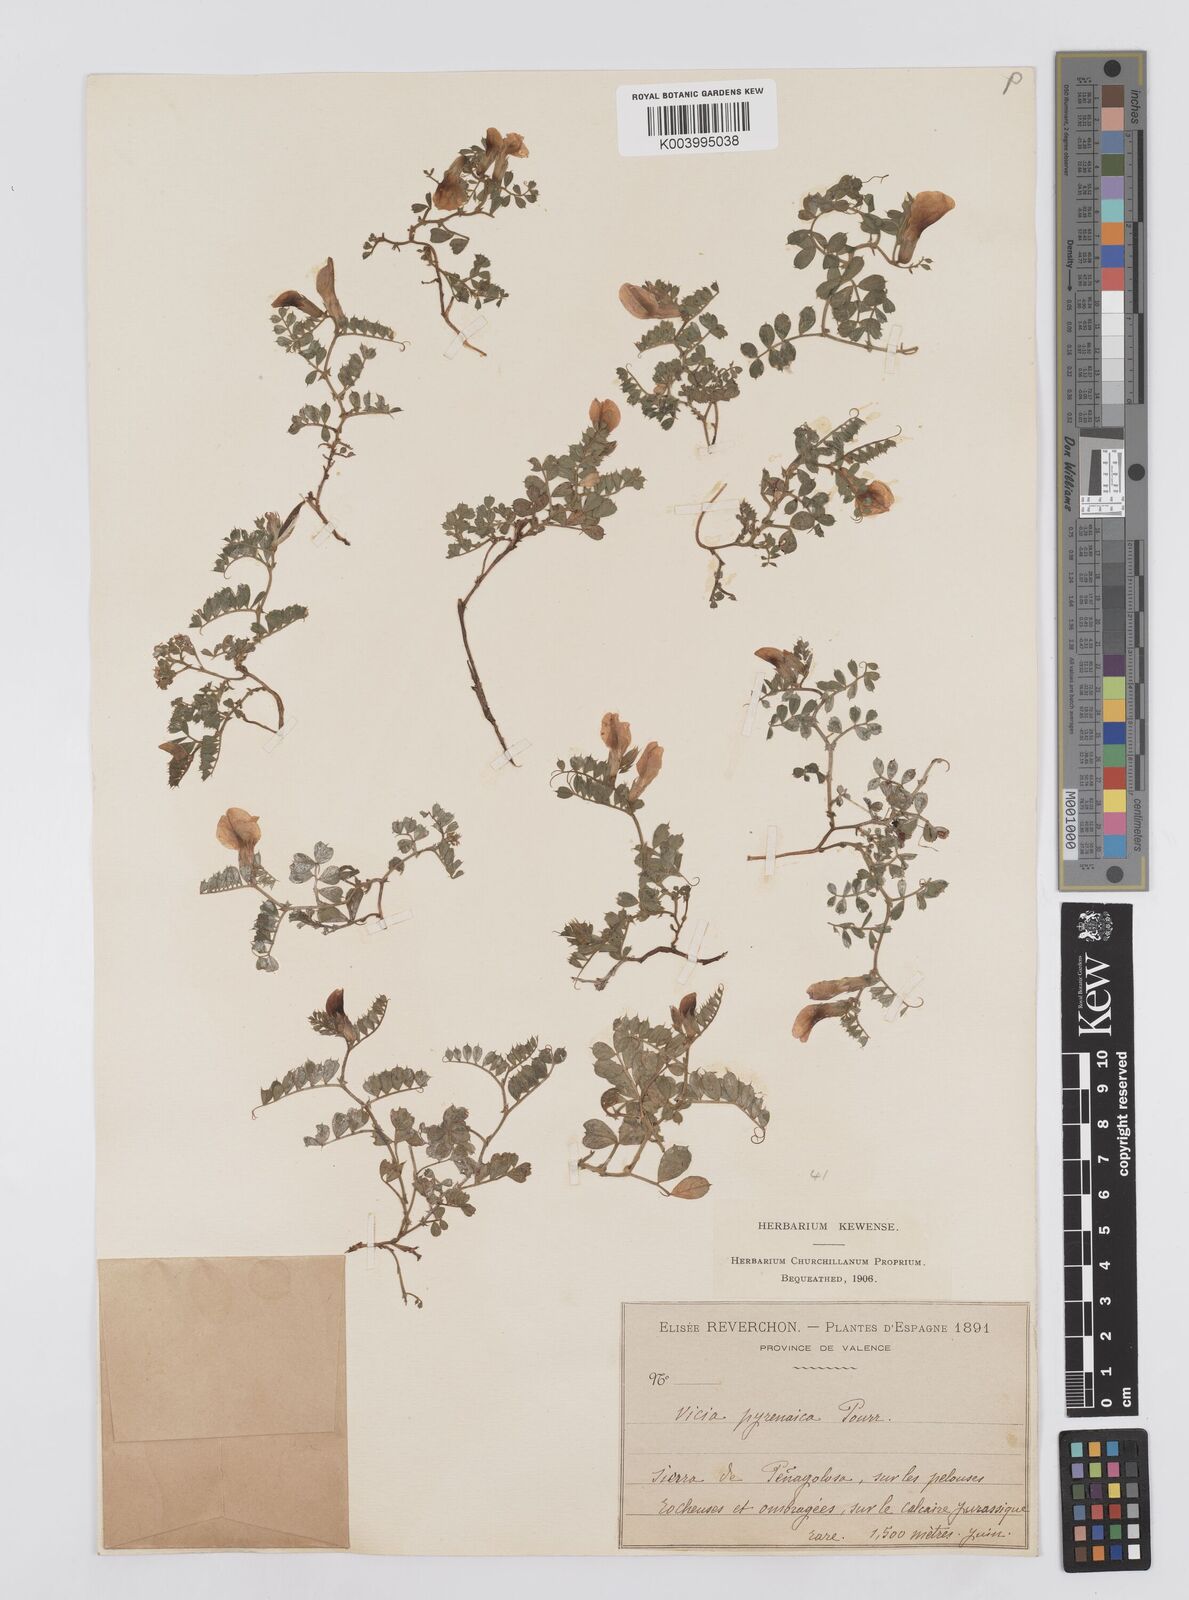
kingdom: Plantae
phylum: Tracheophyta
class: Magnoliopsida
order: Fabales
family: Fabaceae
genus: Vicia
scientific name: Vicia pyrenaica
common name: Pyrenean vetch
